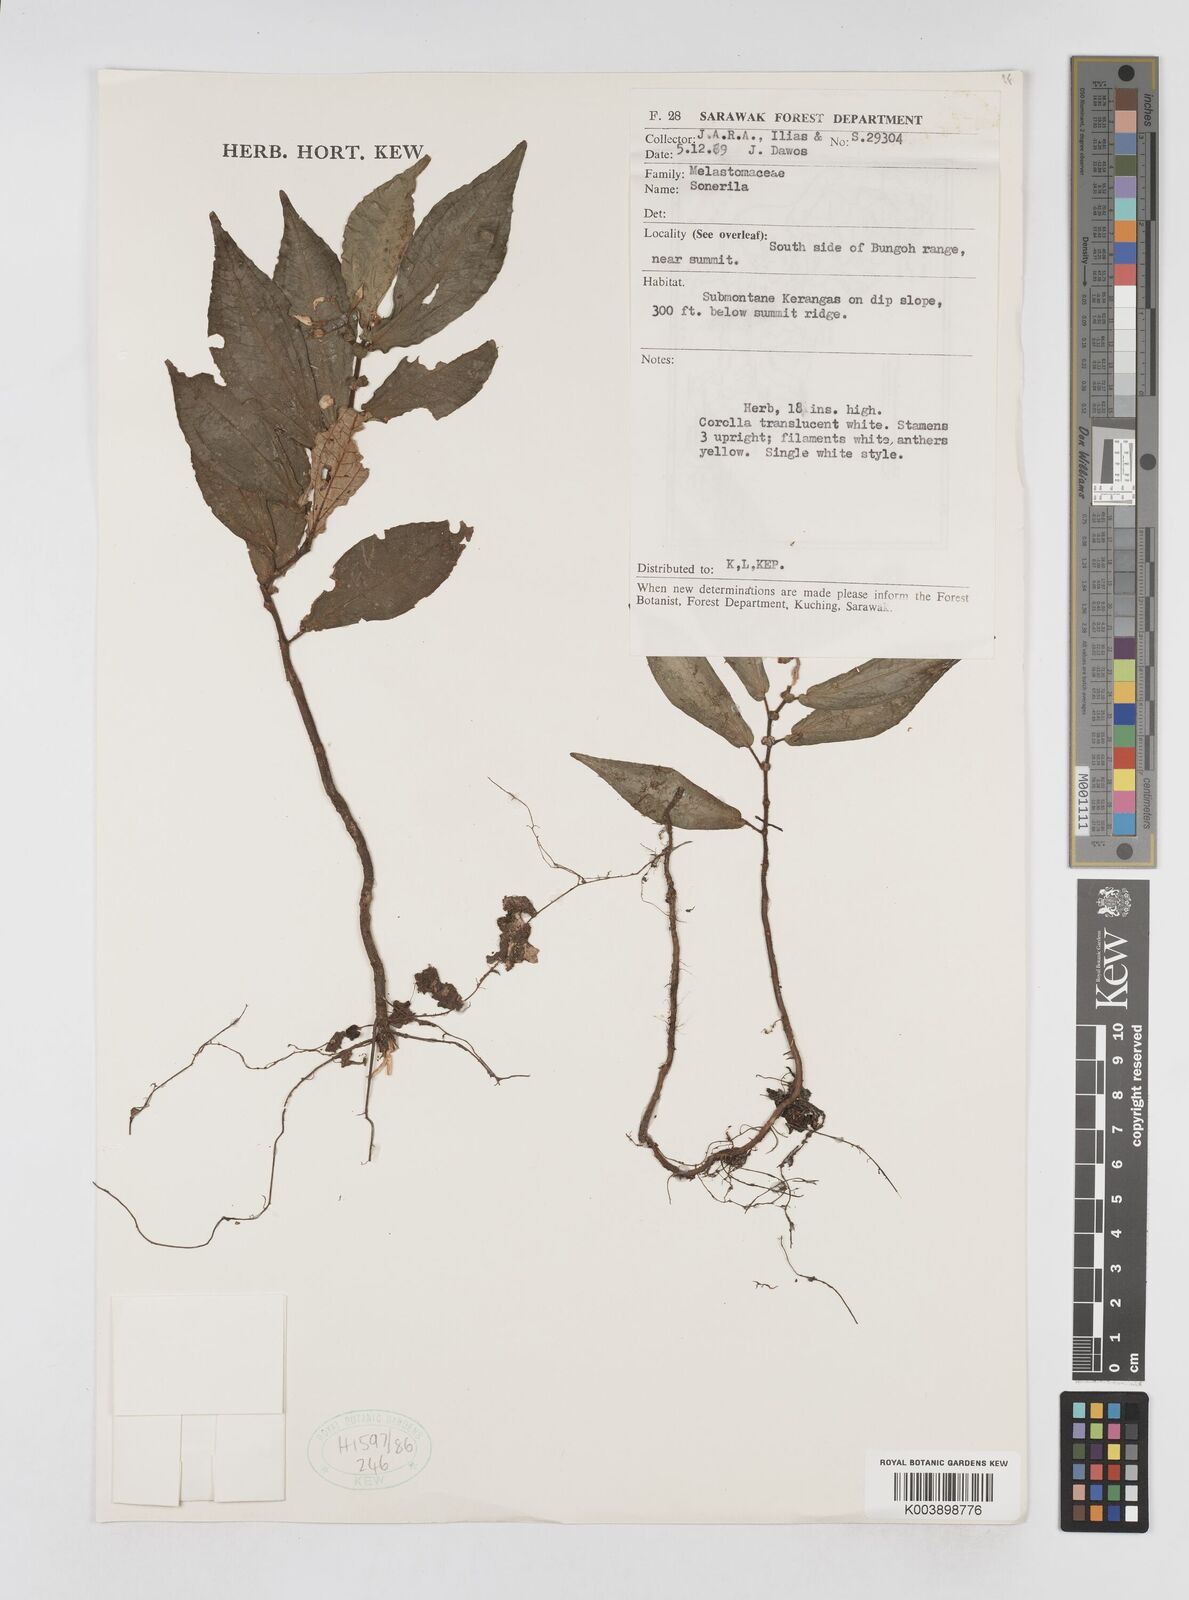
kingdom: Plantae
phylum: Tracheophyta
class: Magnoliopsida
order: Myrtales
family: Melastomataceae
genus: Sonerila
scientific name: Sonerila
